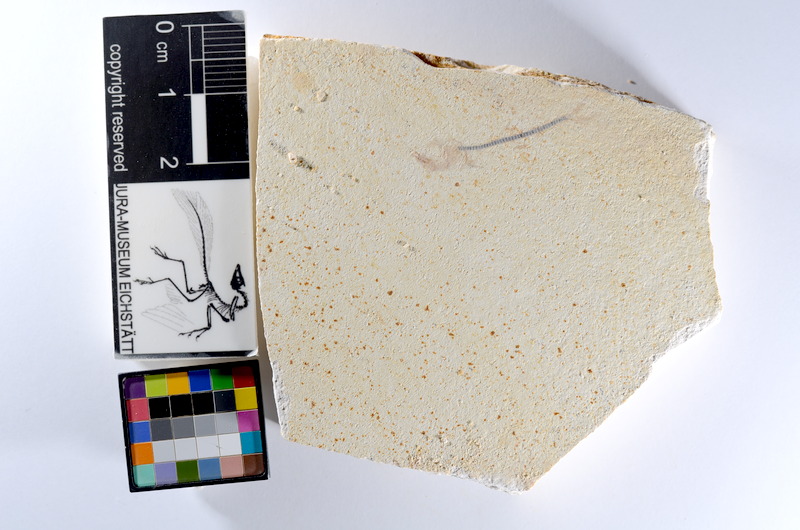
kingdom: Animalia
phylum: Chordata
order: Salmoniformes
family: Orthogonikleithridae
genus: Orthogonikleithrus
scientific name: Orthogonikleithrus hoelli
